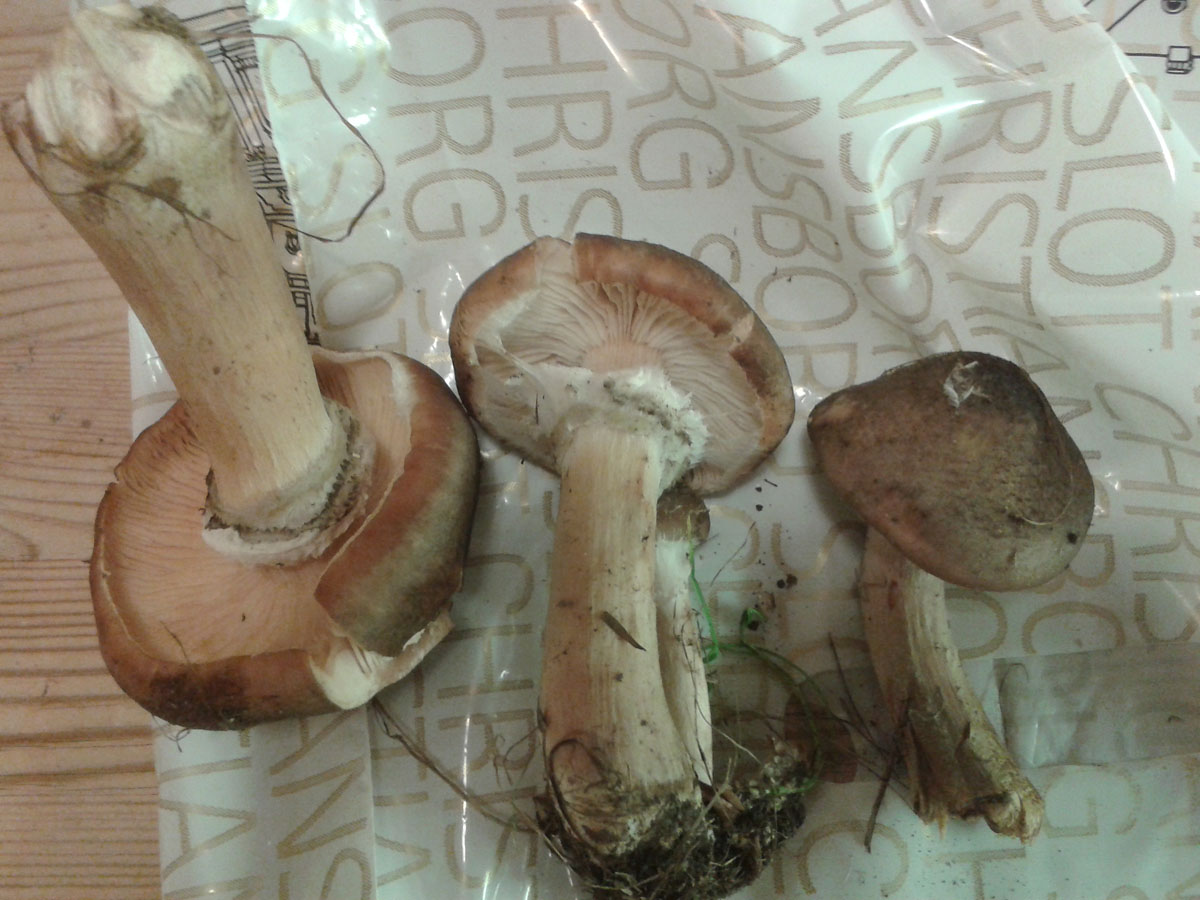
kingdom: Fungi
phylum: Basidiomycota
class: Agaricomycetes
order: Agaricales
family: Physalacriaceae
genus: Armillaria
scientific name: Armillaria lutea
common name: køllestokket honningsvamp
